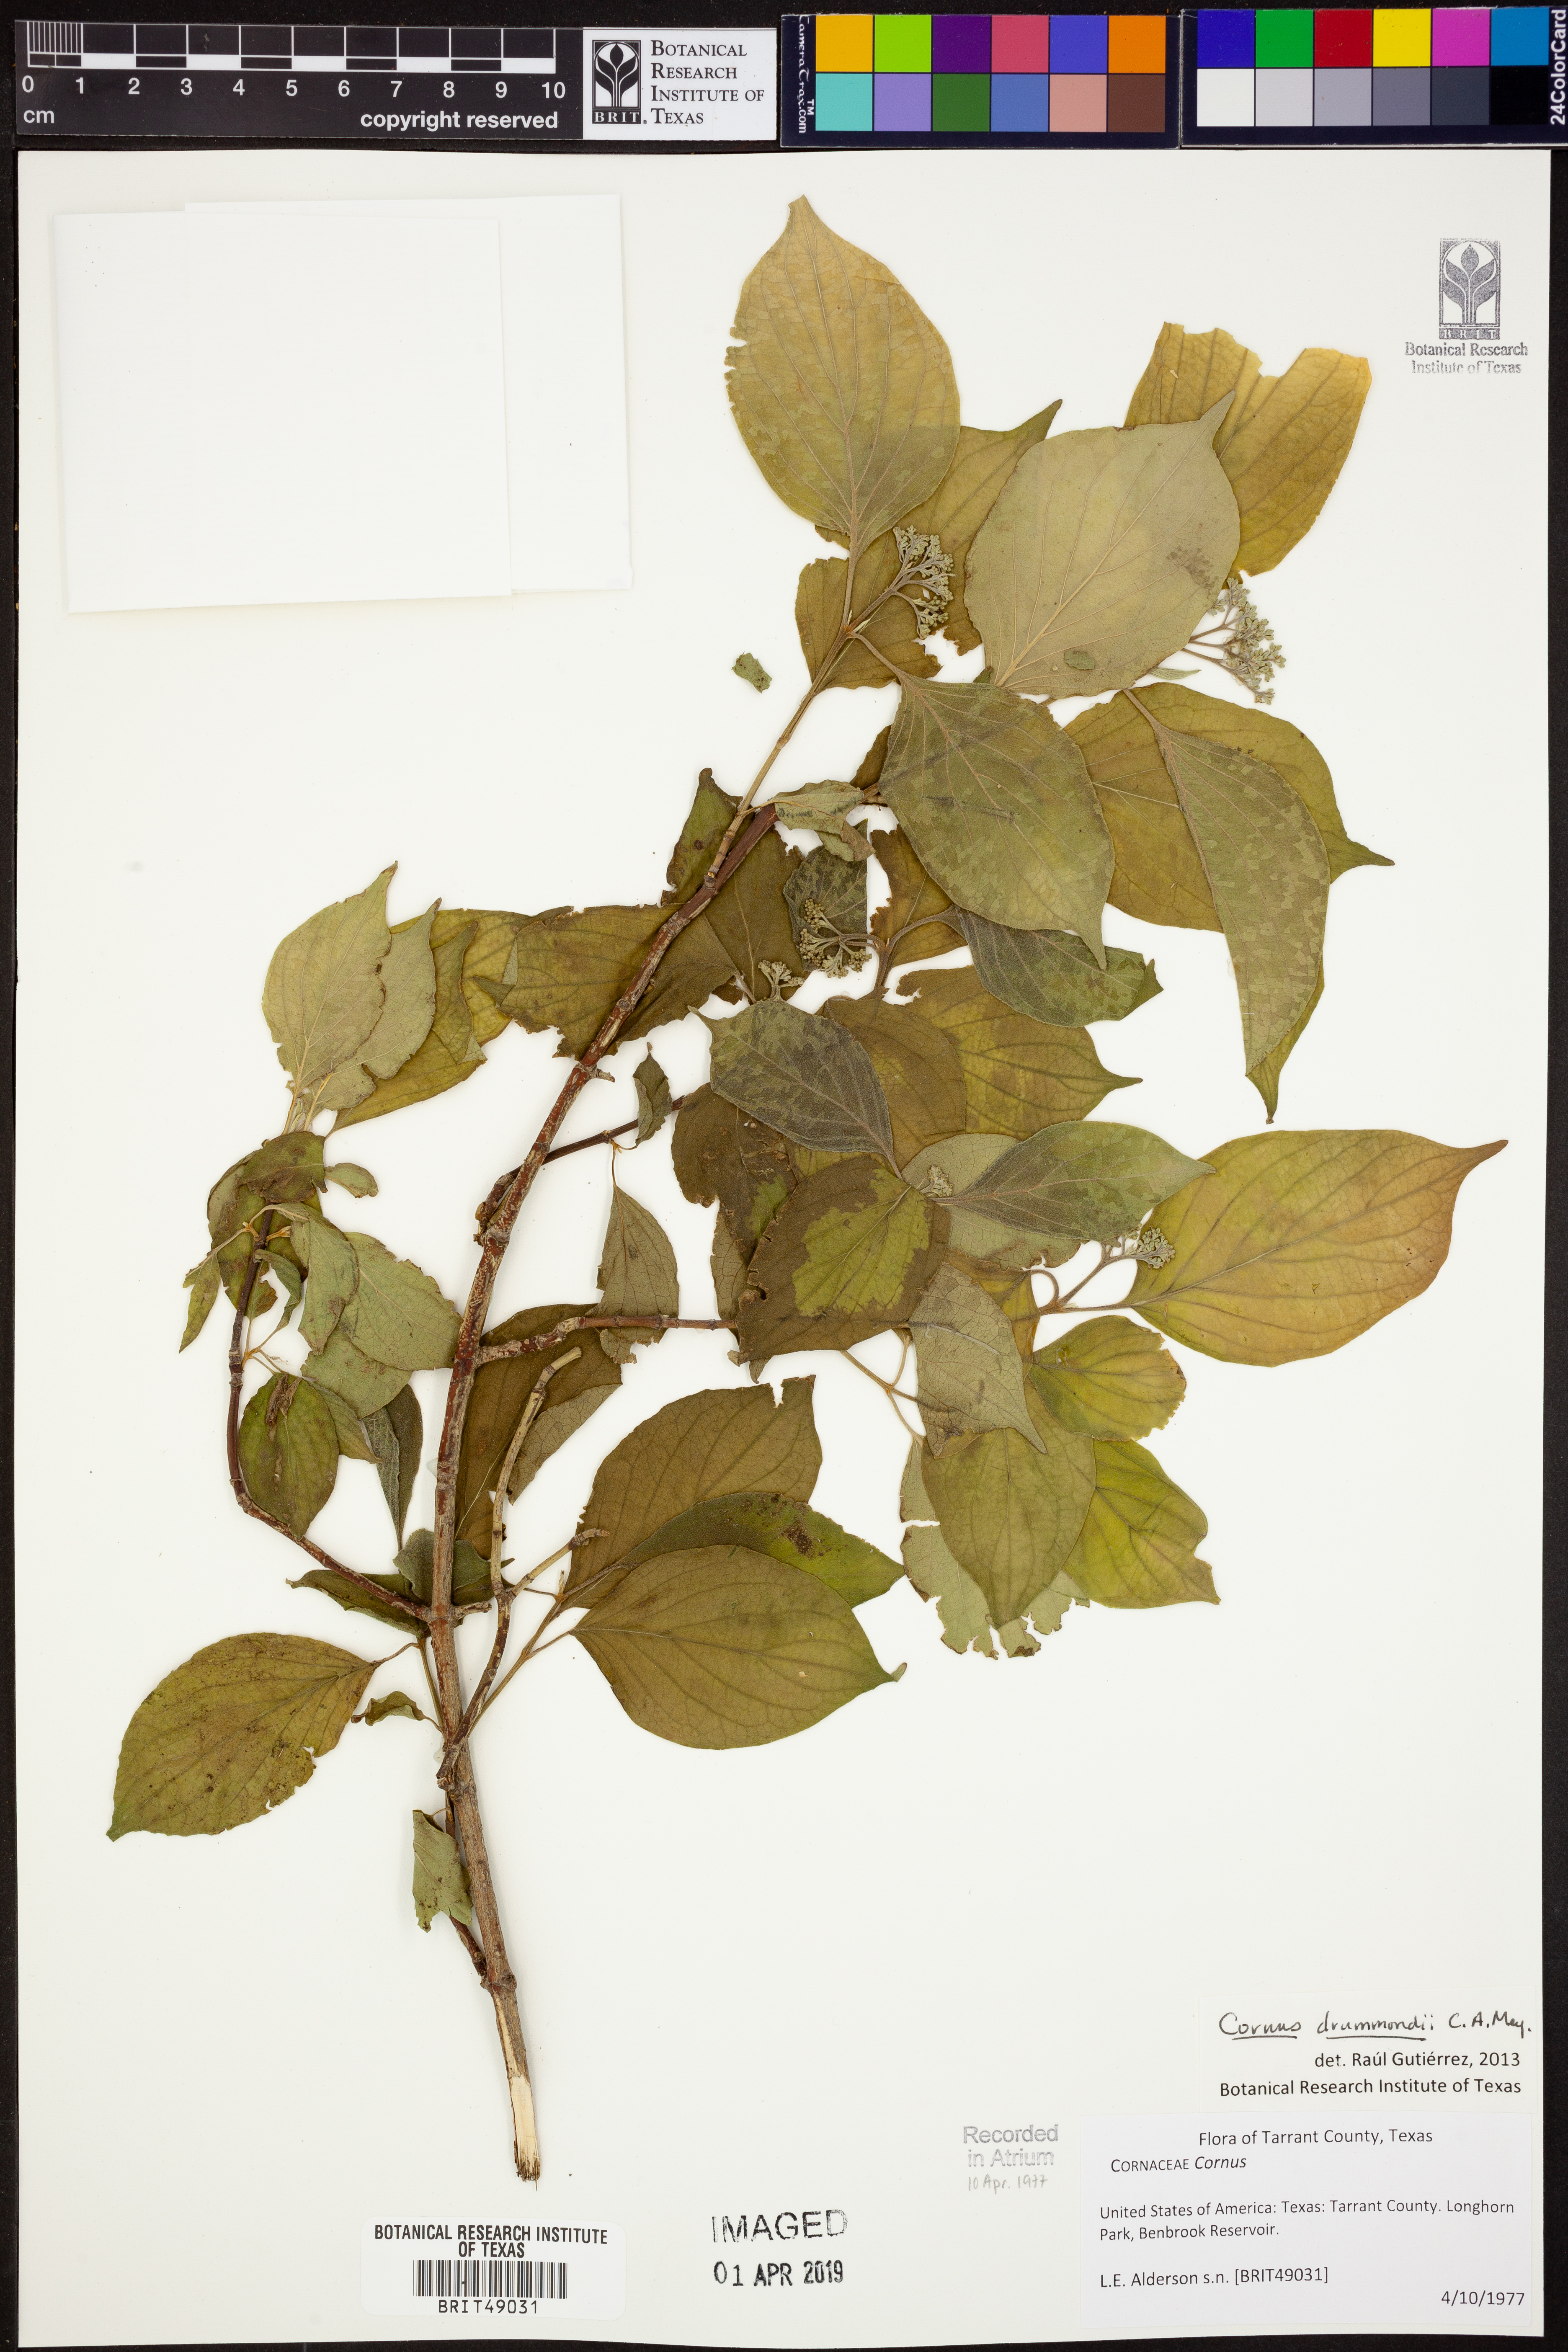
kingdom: Plantae
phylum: Tracheophyta
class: Magnoliopsida
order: Cornales
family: Cornaceae
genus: Cornus
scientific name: Cornus drummondii
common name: Rough-leaf dogwood
